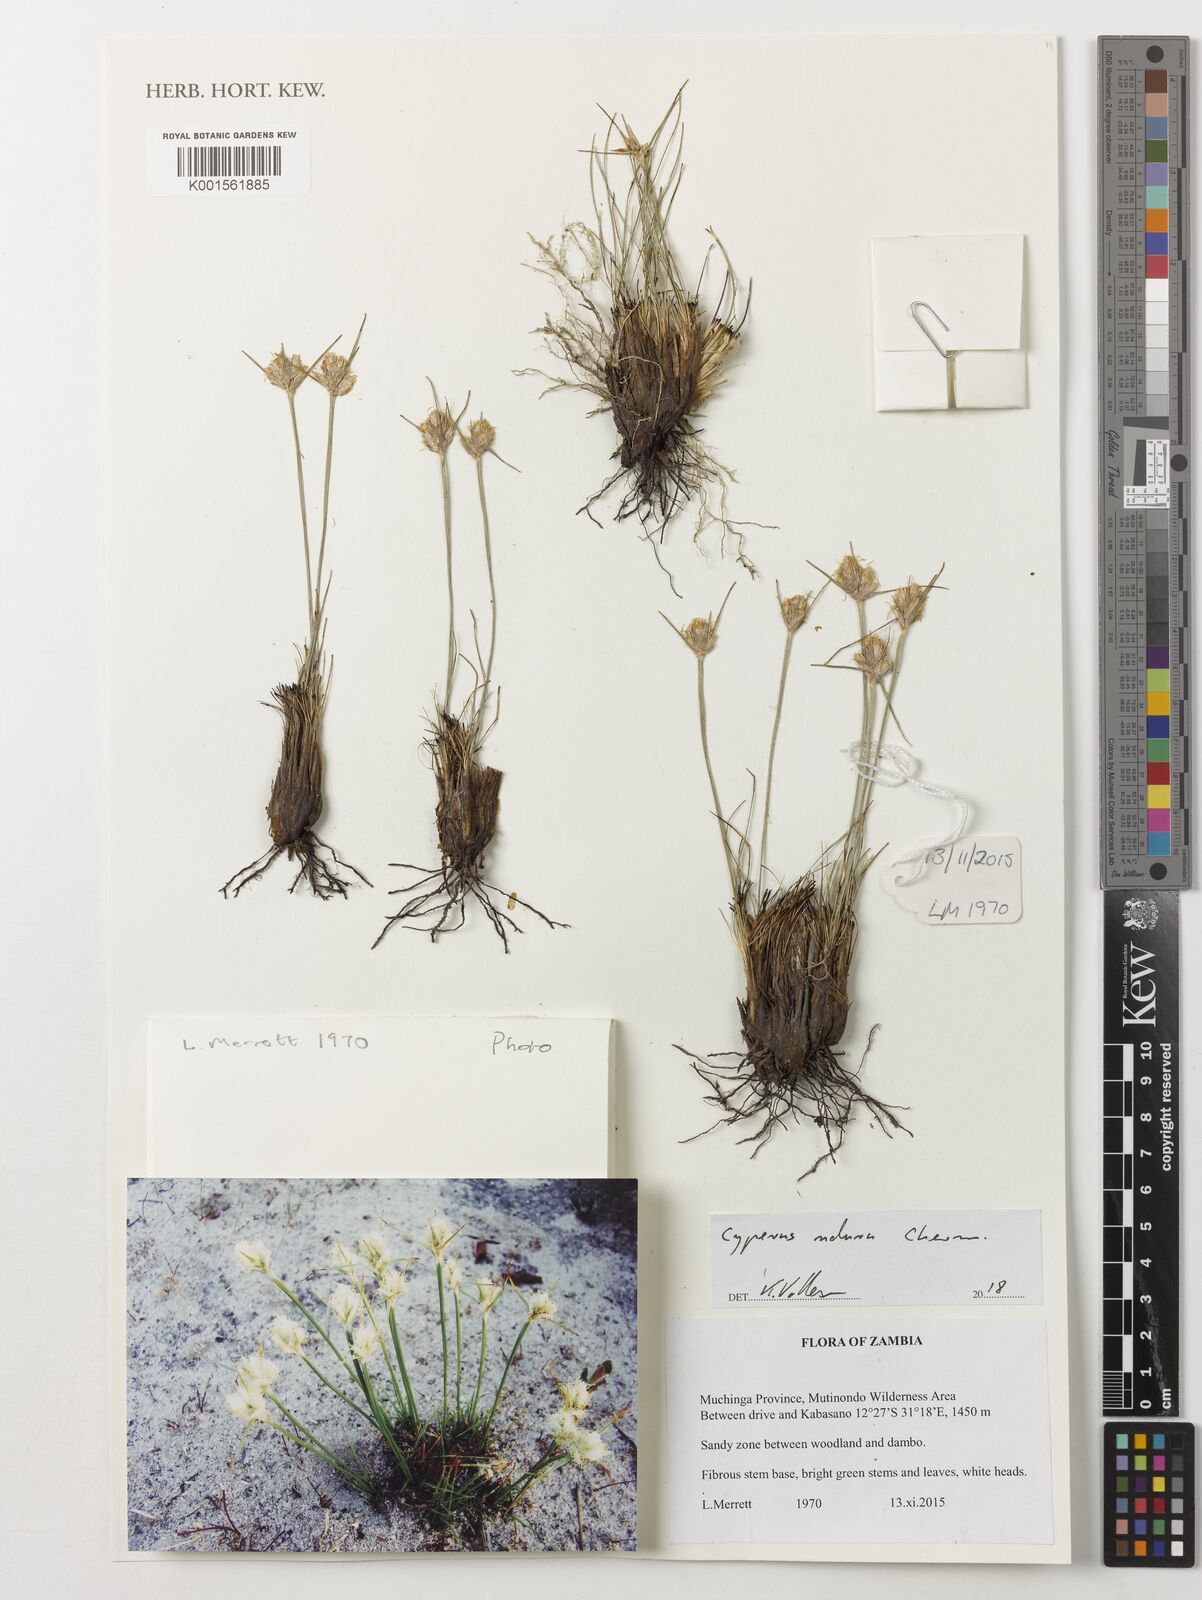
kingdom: Plantae
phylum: Tracheophyta
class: Liliopsida
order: Poales
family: Cyperaceae
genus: Cyperus
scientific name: Cyperus
